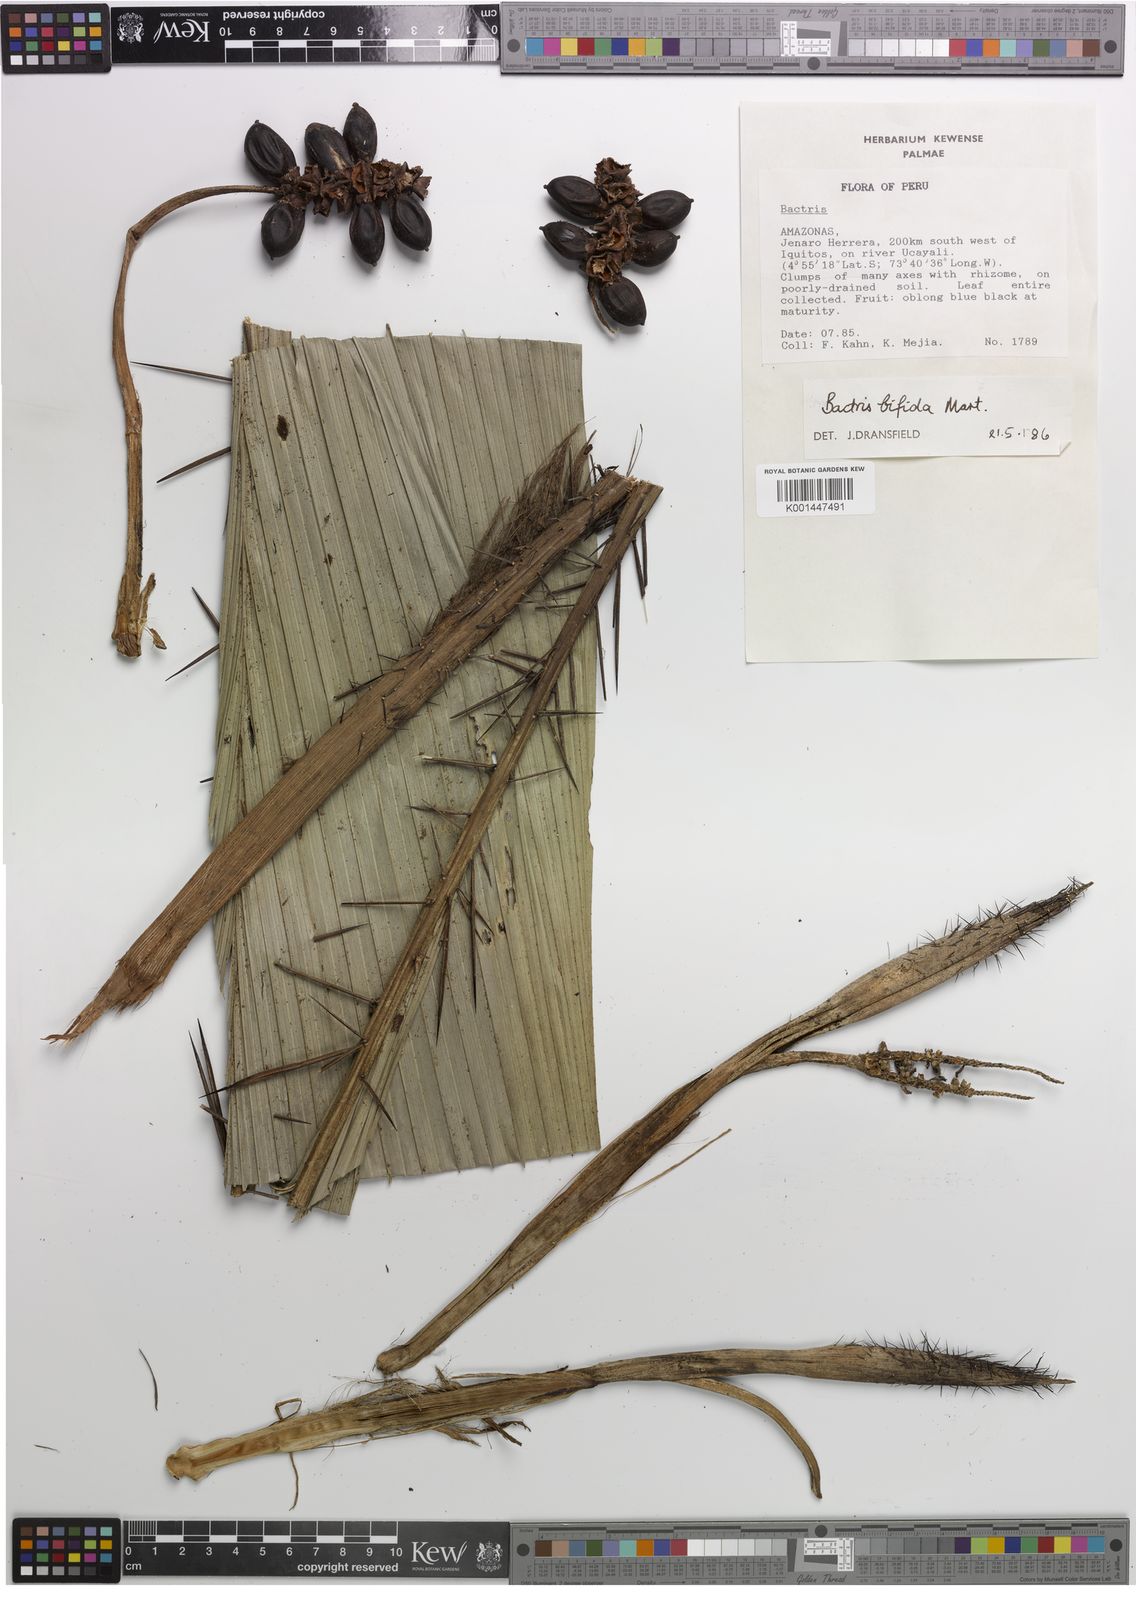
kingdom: Plantae
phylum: Tracheophyta
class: Liliopsida
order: Arecales
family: Arecaceae
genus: Bactris
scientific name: Bactris bifida
